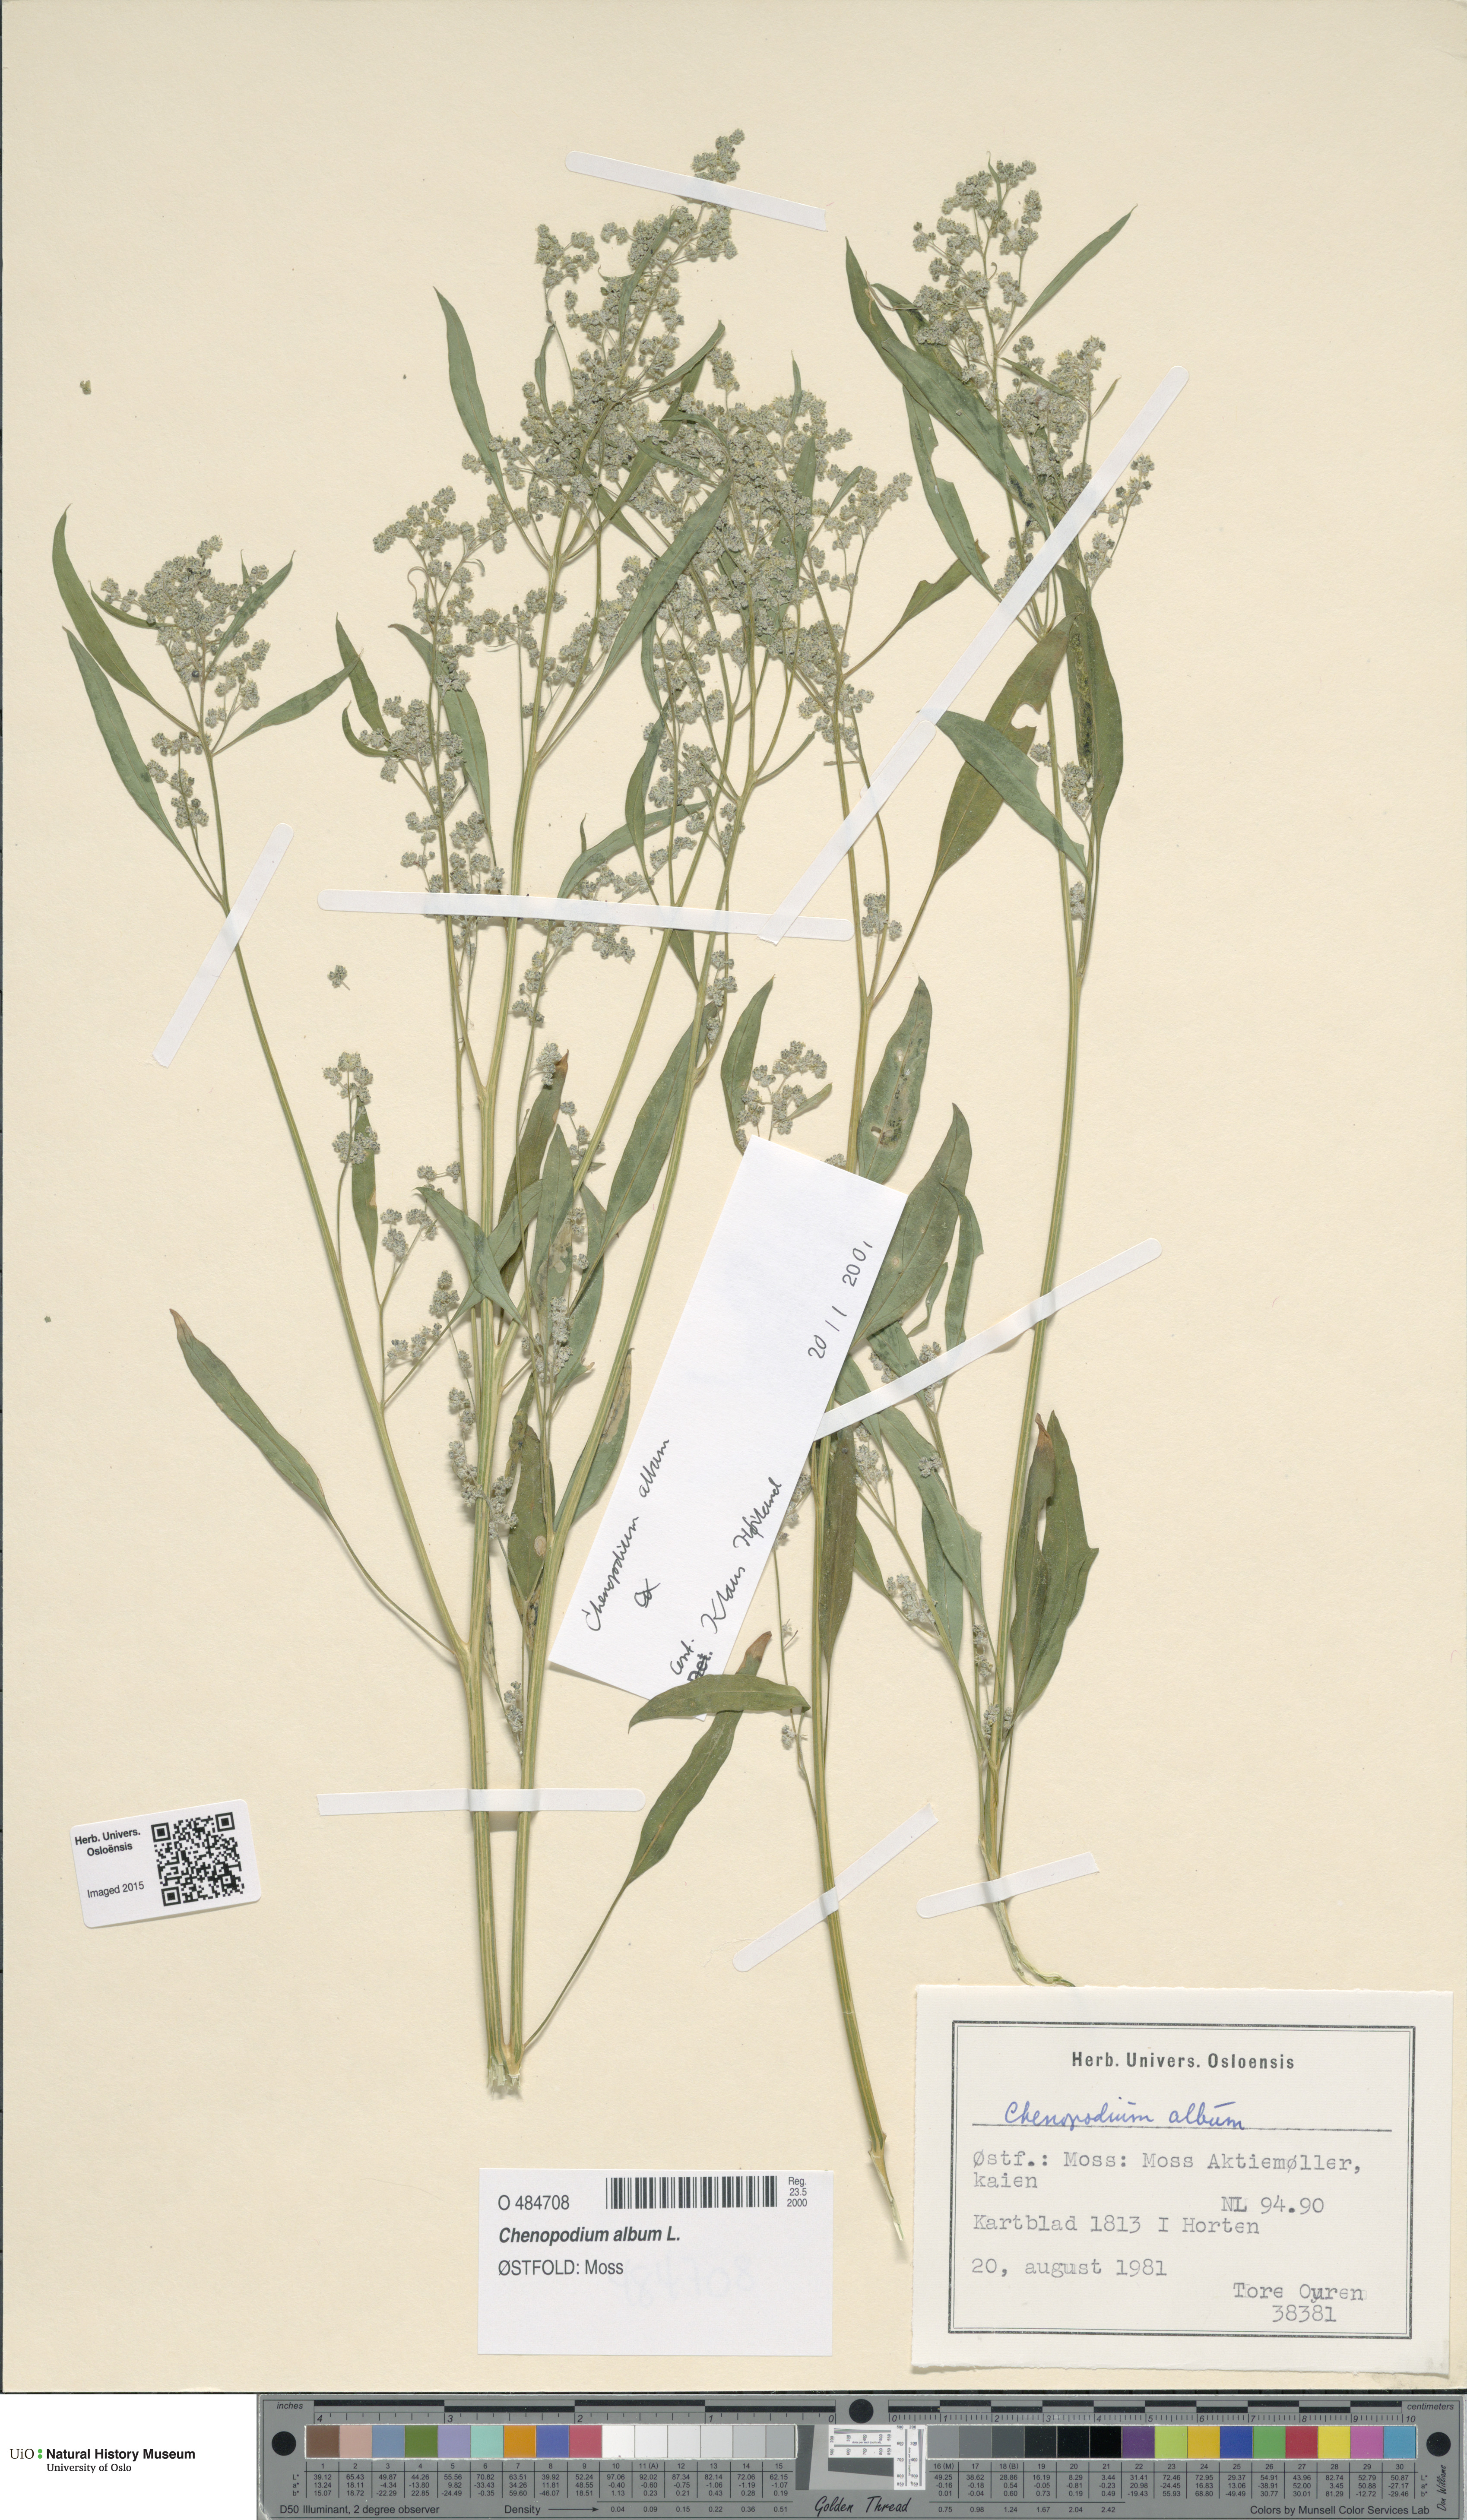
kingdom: Plantae
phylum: Tracheophyta
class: Magnoliopsida
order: Caryophyllales
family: Amaranthaceae
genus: Chenopodium
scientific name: Chenopodium album
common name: Fat-hen
